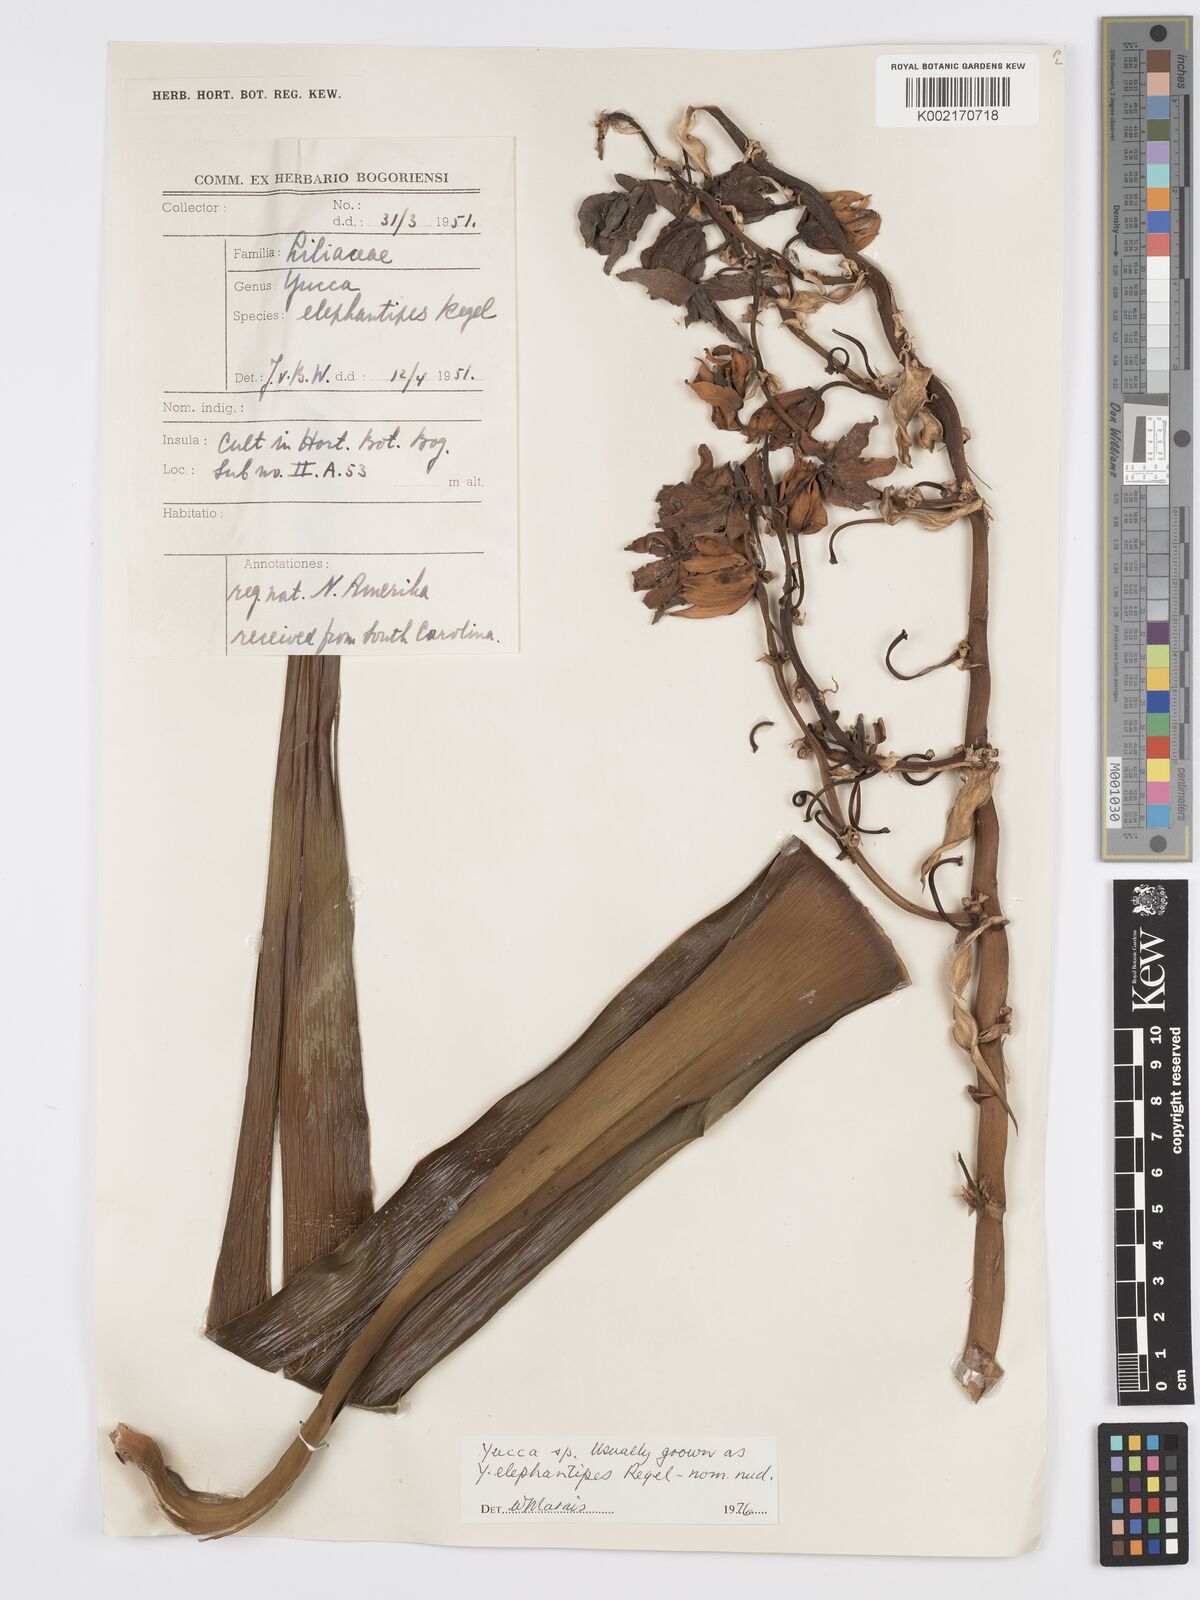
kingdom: Plantae
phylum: Tracheophyta
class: Liliopsida
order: Asparagales
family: Asparagaceae
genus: Yucca
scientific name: Yucca
